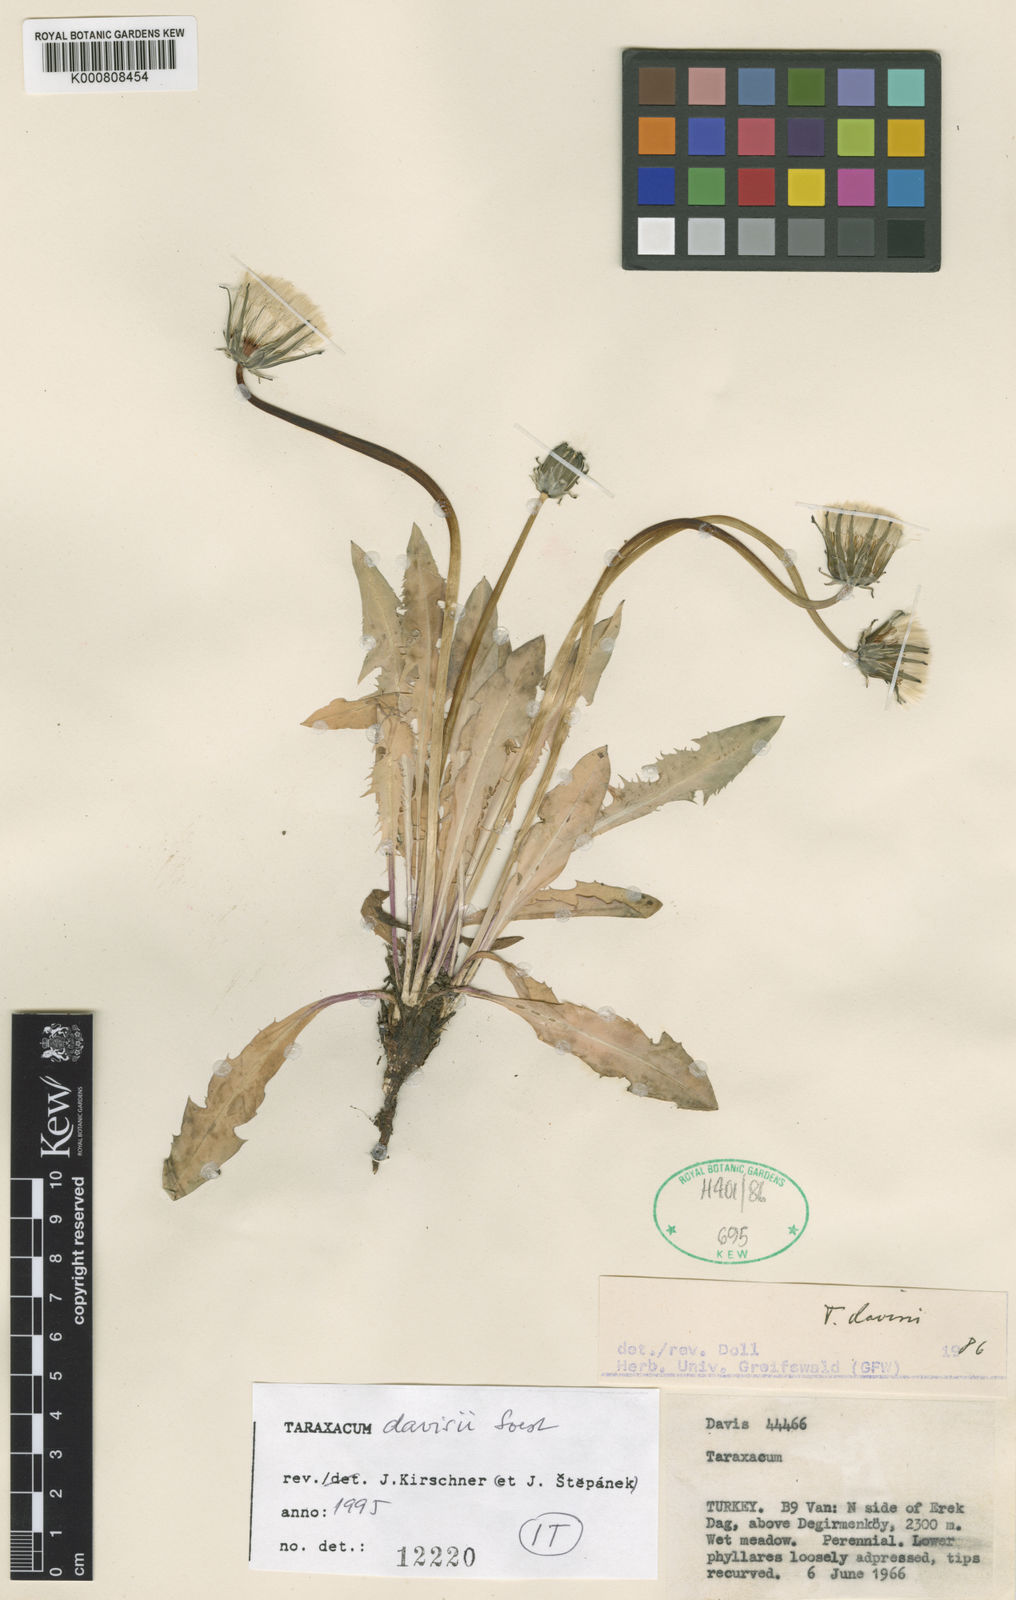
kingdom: Plantae
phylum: Tracheophyta
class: Magnoliopsida
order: Asterales
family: Asteraceae
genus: Taraxacum
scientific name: Taraxacum davisii
